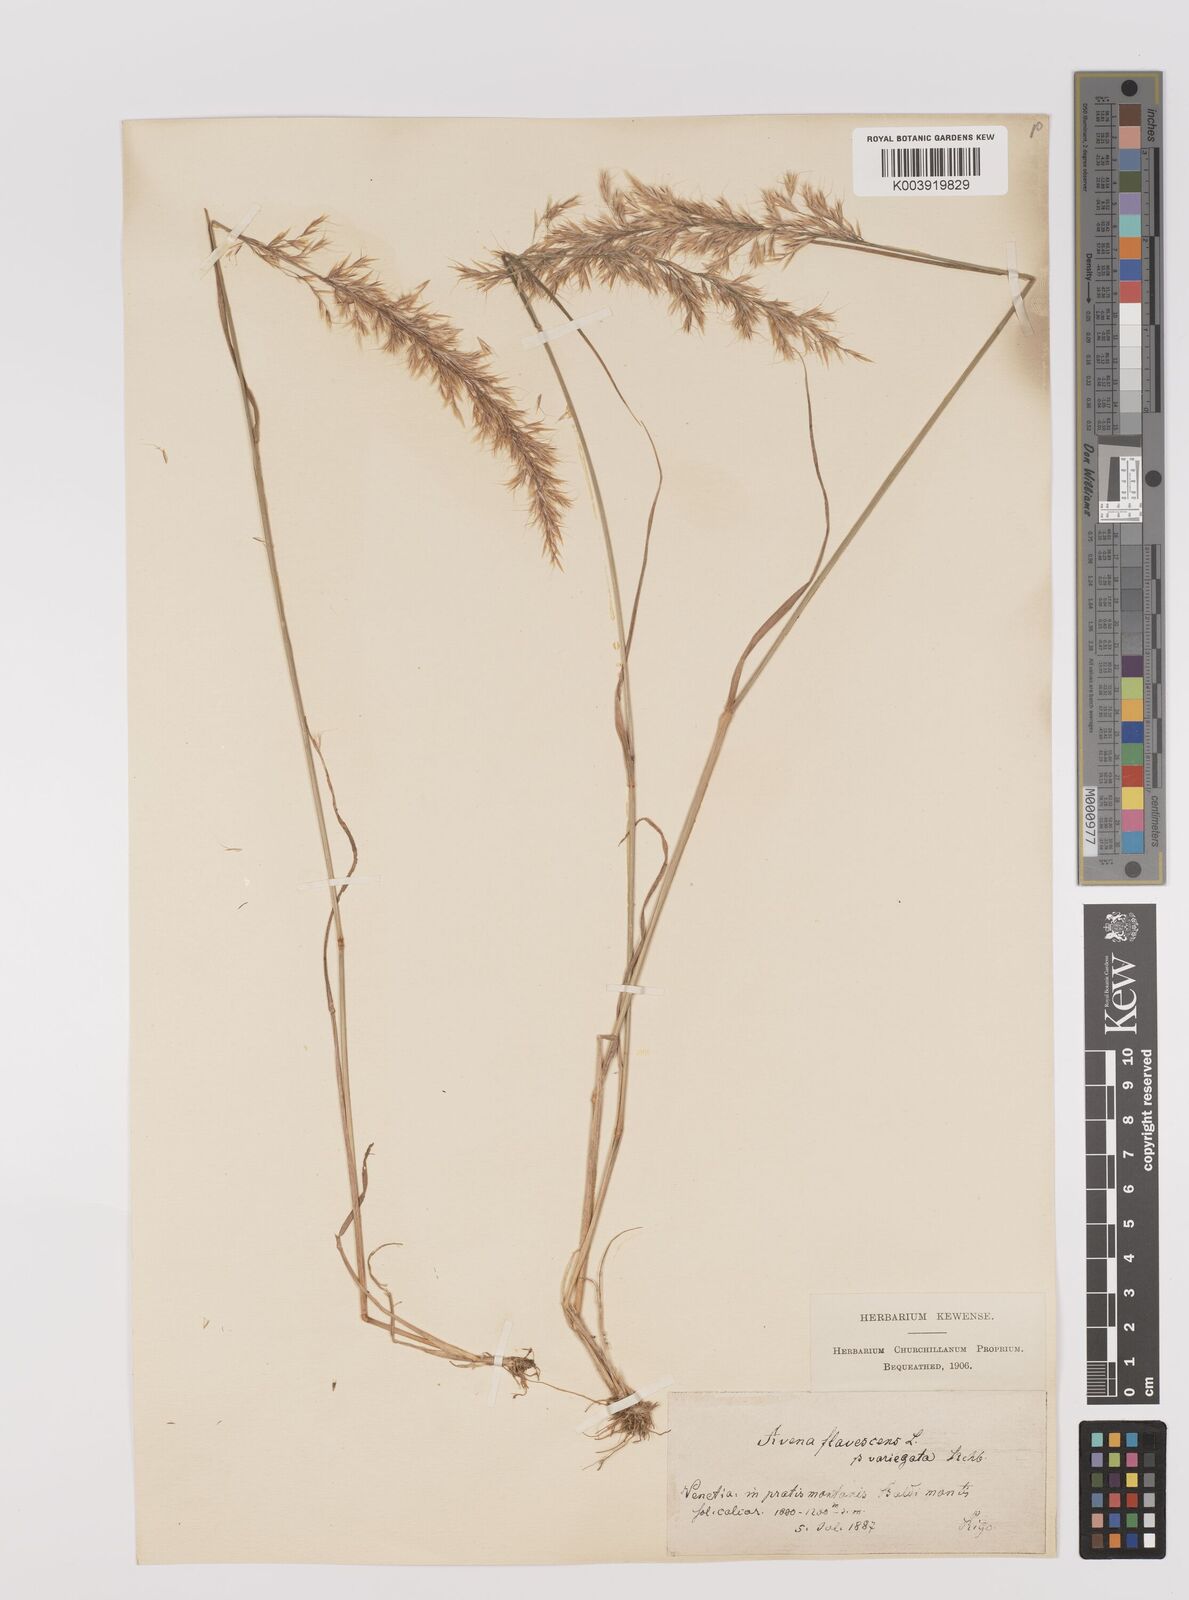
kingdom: Plantae
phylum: Tracheophyta
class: Liliopsida
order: Poales
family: Poaceae
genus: Trisetum
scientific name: Trisetum flavescens
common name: Yellow oat-grass
